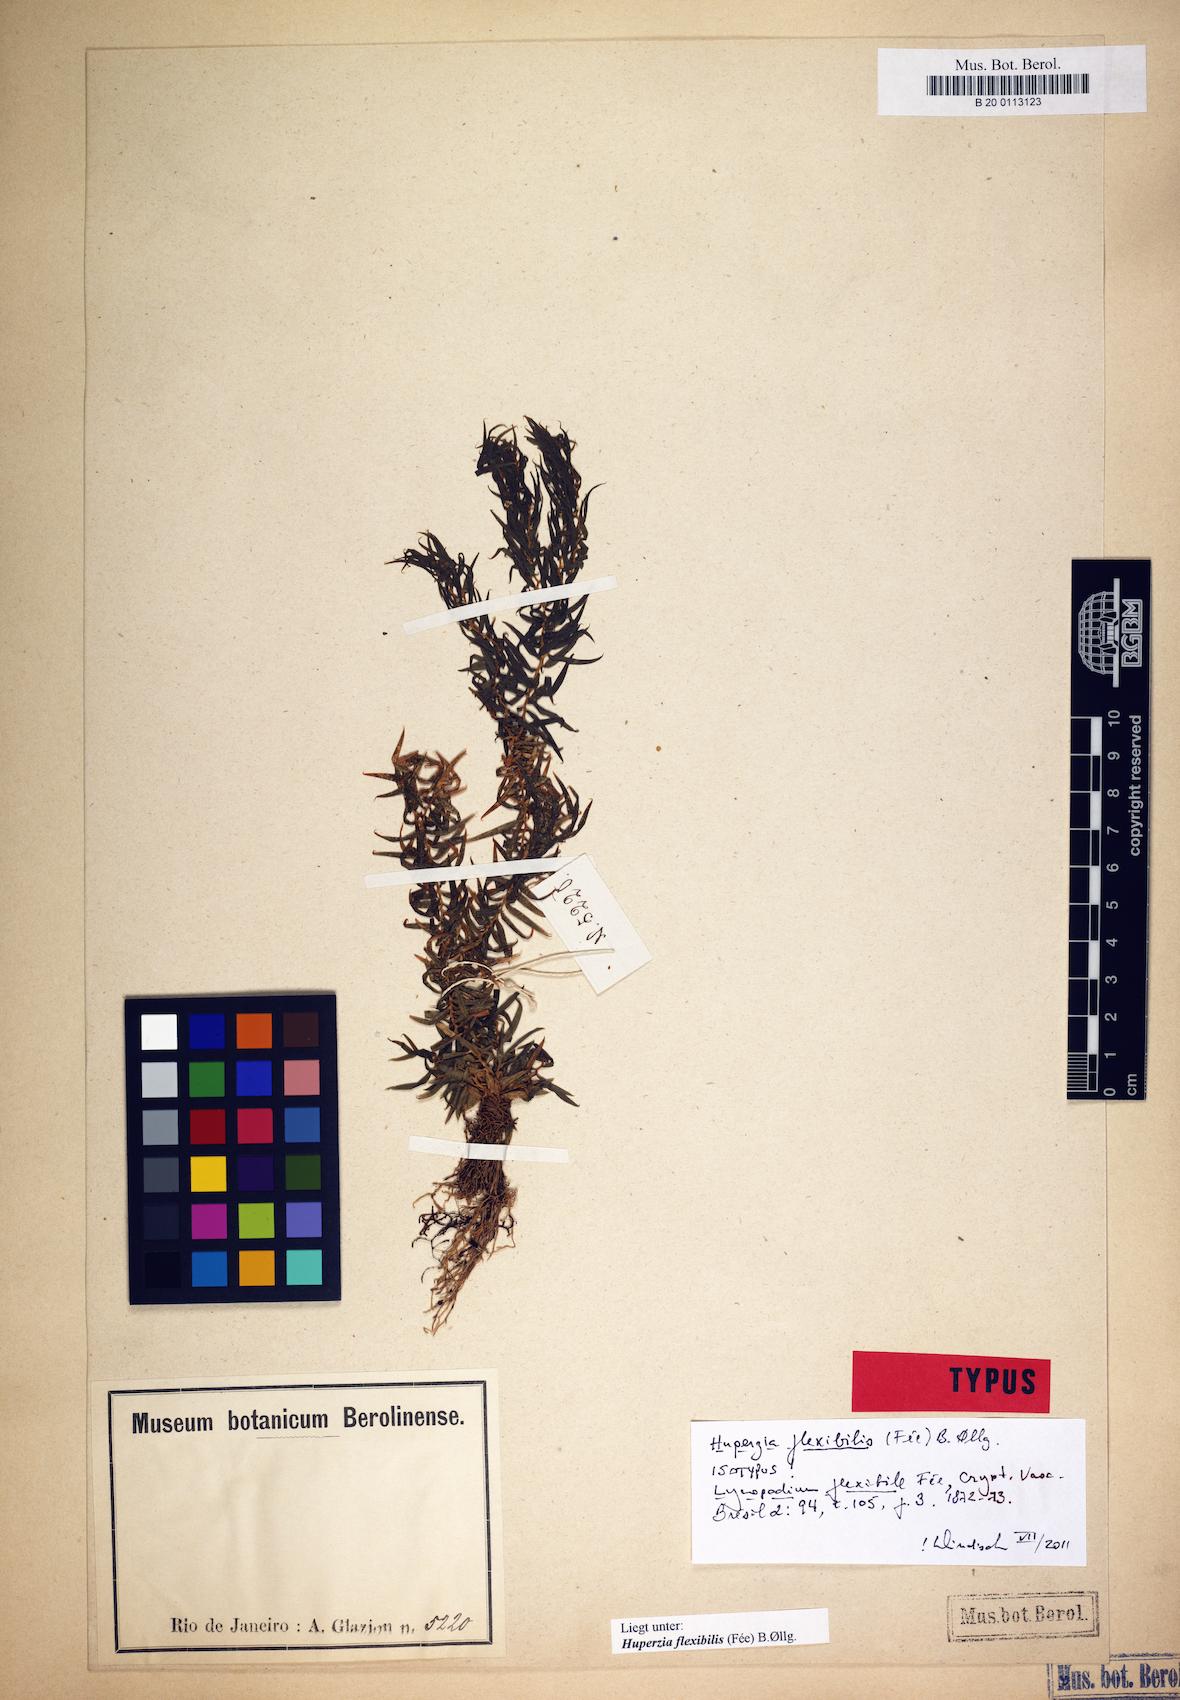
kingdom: Plantae
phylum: Tracheophyta
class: Lycopodiopsida
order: Lycopodiales
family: Lycopodiaceae
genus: Phlegmariurus
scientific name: Phlegmariurus flexibilis
